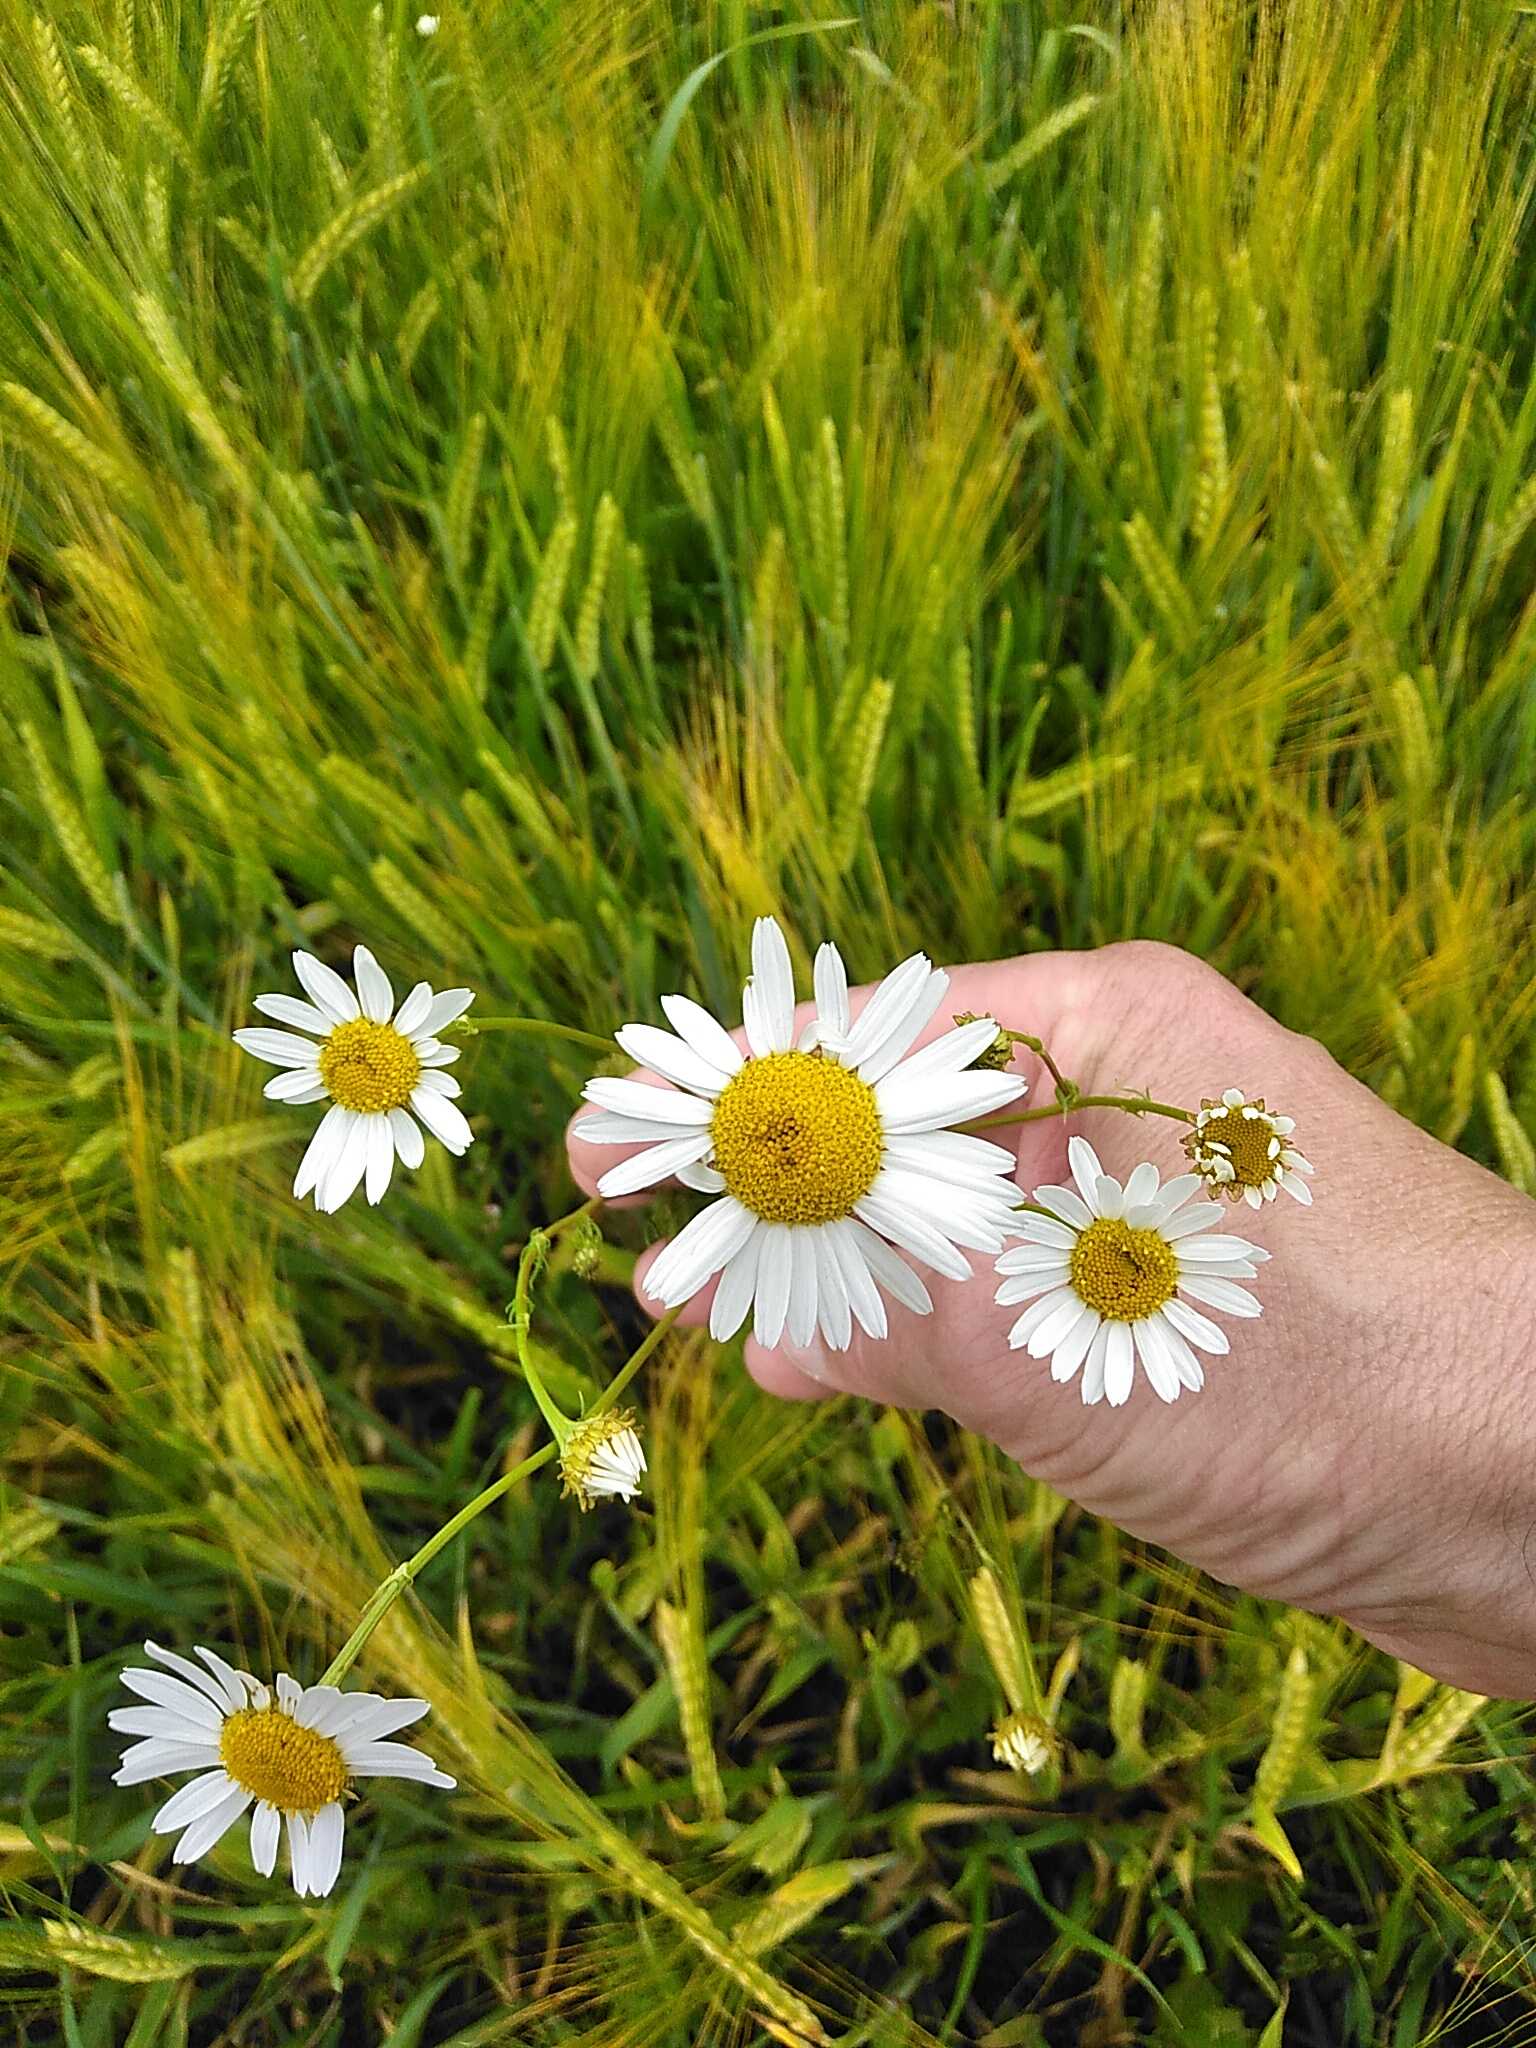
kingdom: Plantae
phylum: Tracheophyta
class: Magnoliopsida
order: Asterales
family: Asteraceae
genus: Tripleurospermum
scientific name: Tripleurospermum inodorum
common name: Lugtløs kamille
